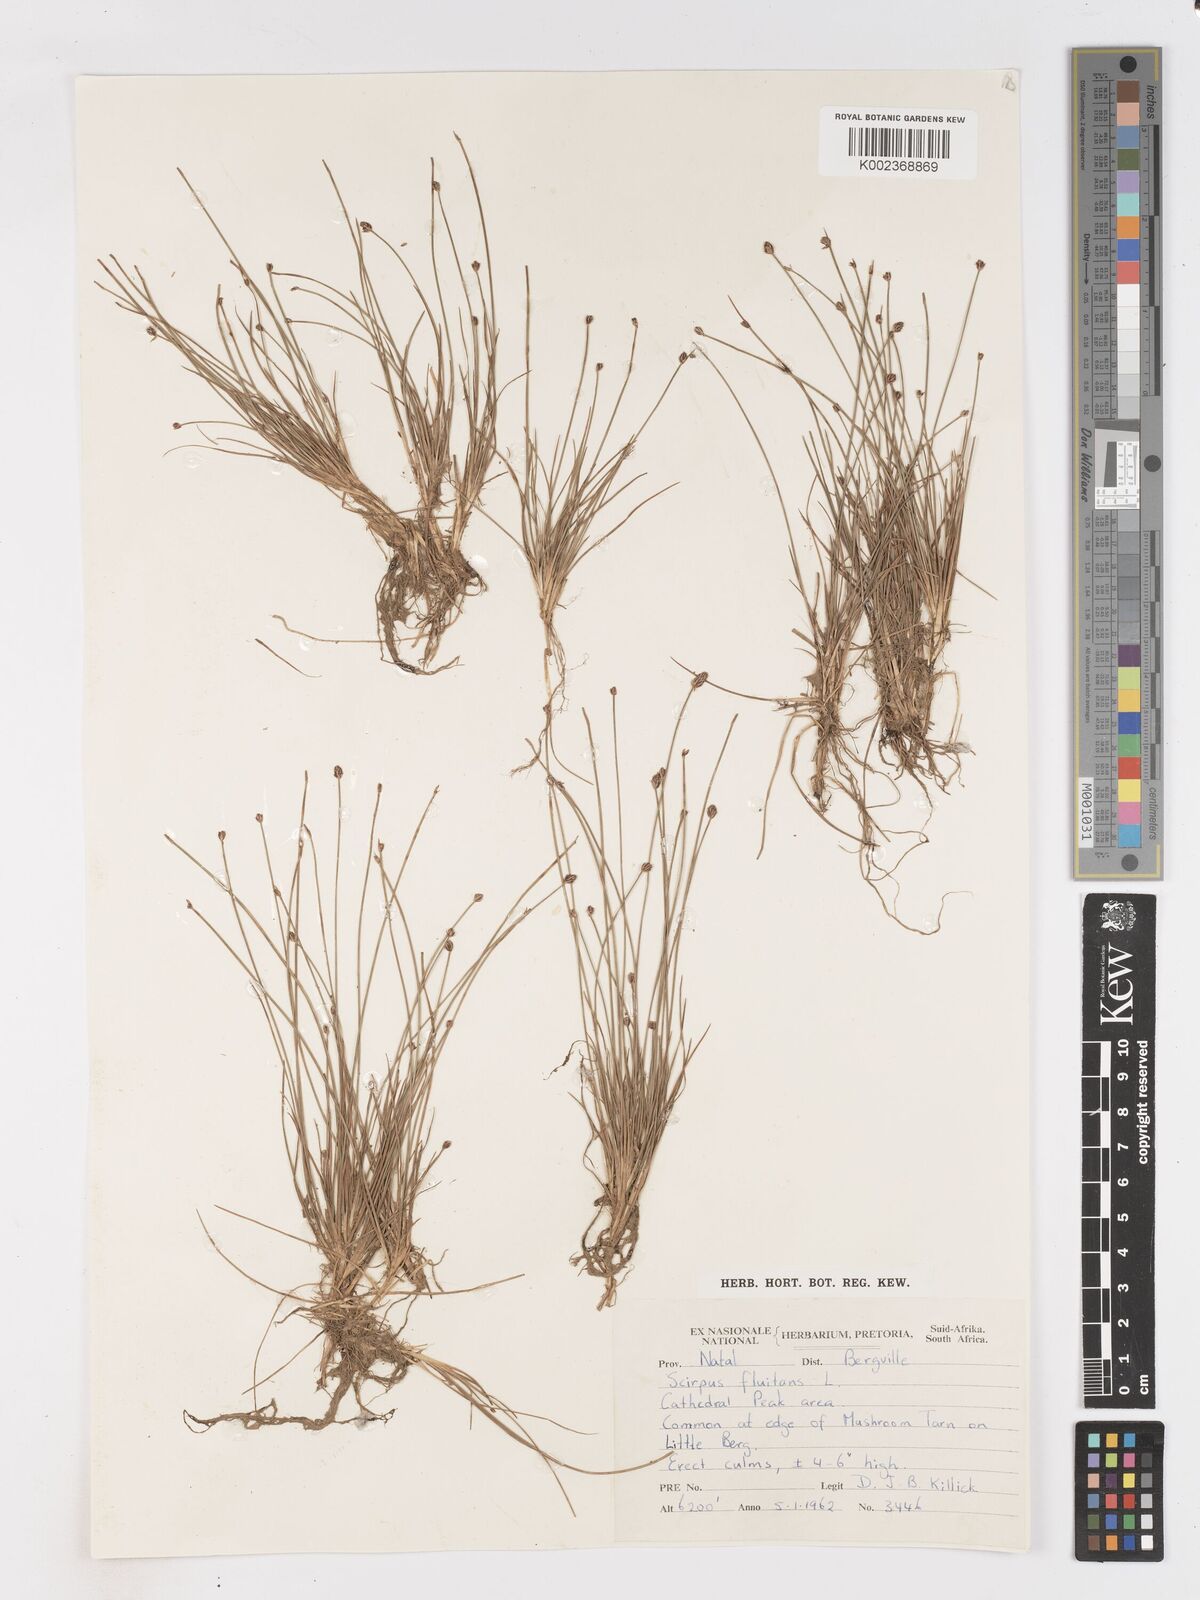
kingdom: Plantae
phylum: Tracheophyta
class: Liliopsida
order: Poales
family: Cyperaceae
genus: Isolepis
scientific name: Isolepis fluitans
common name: Floating club-rush
